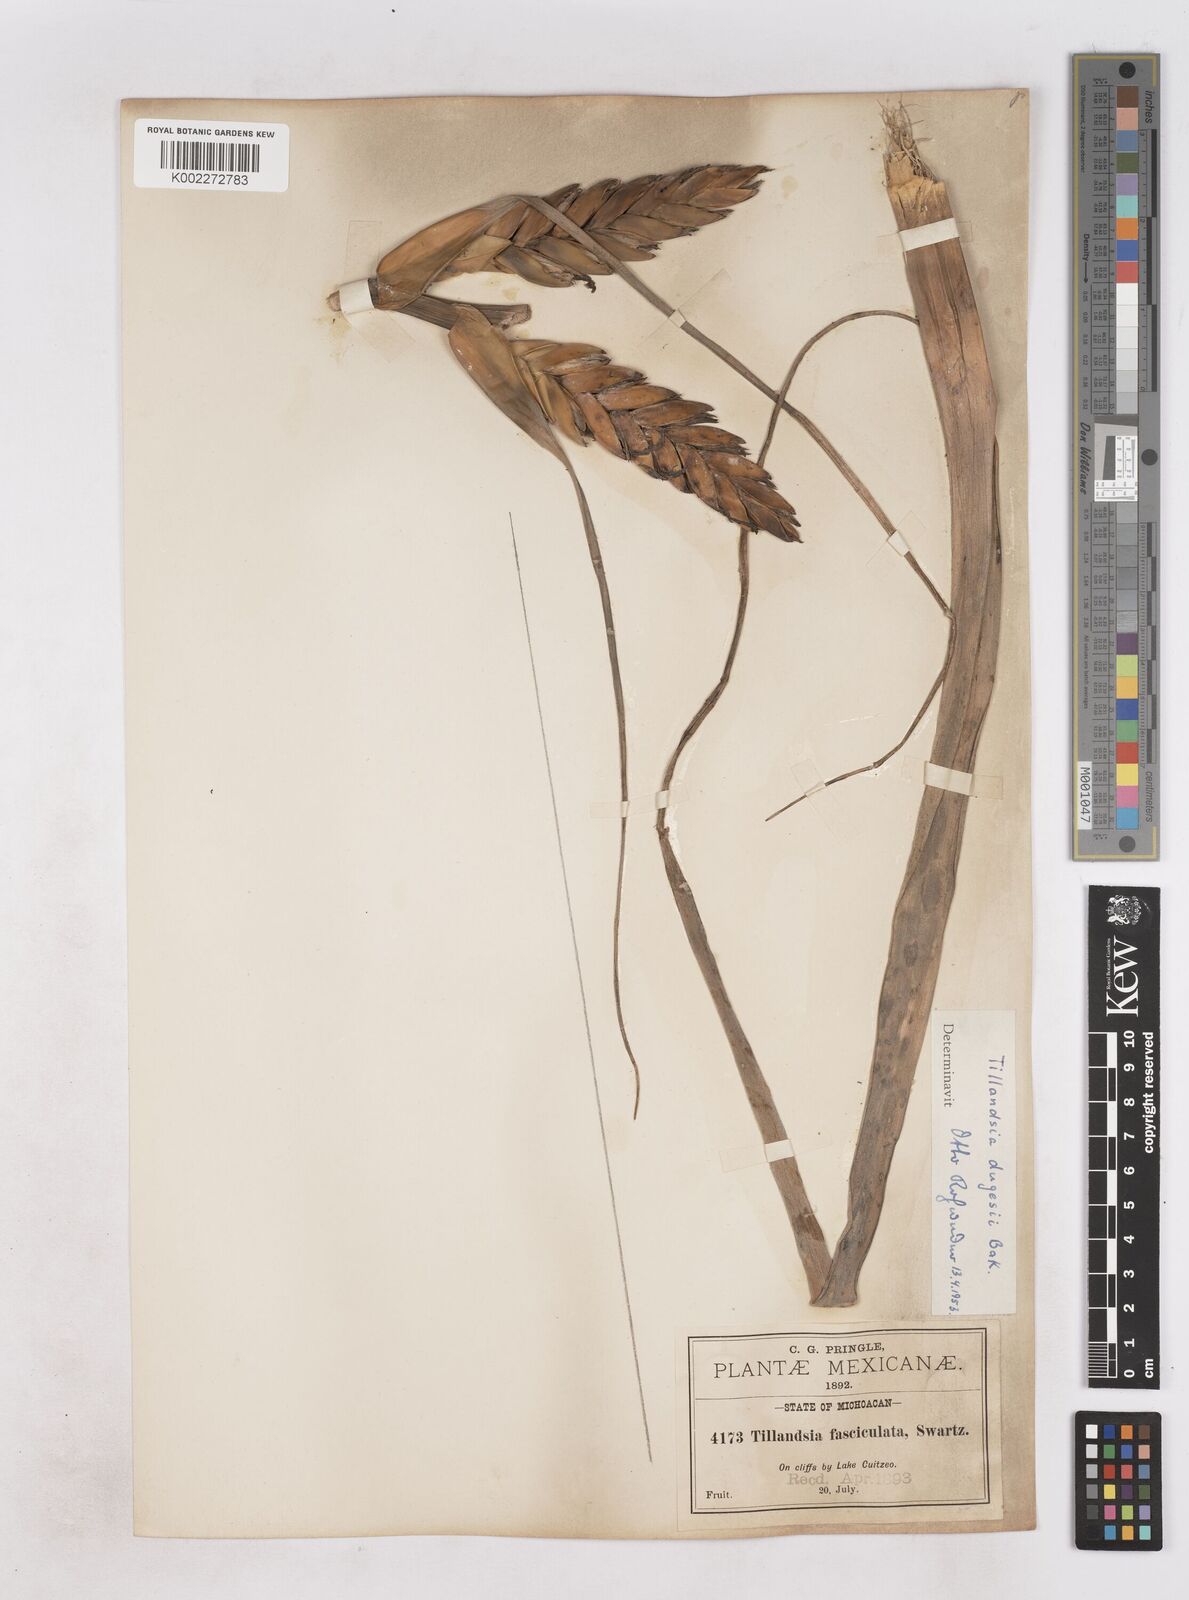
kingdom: Plantae
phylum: Tracheophyta
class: Liliopsida
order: Poales
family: Bromeliaceae
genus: Tillandsia
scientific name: Tillandsia dugesii
